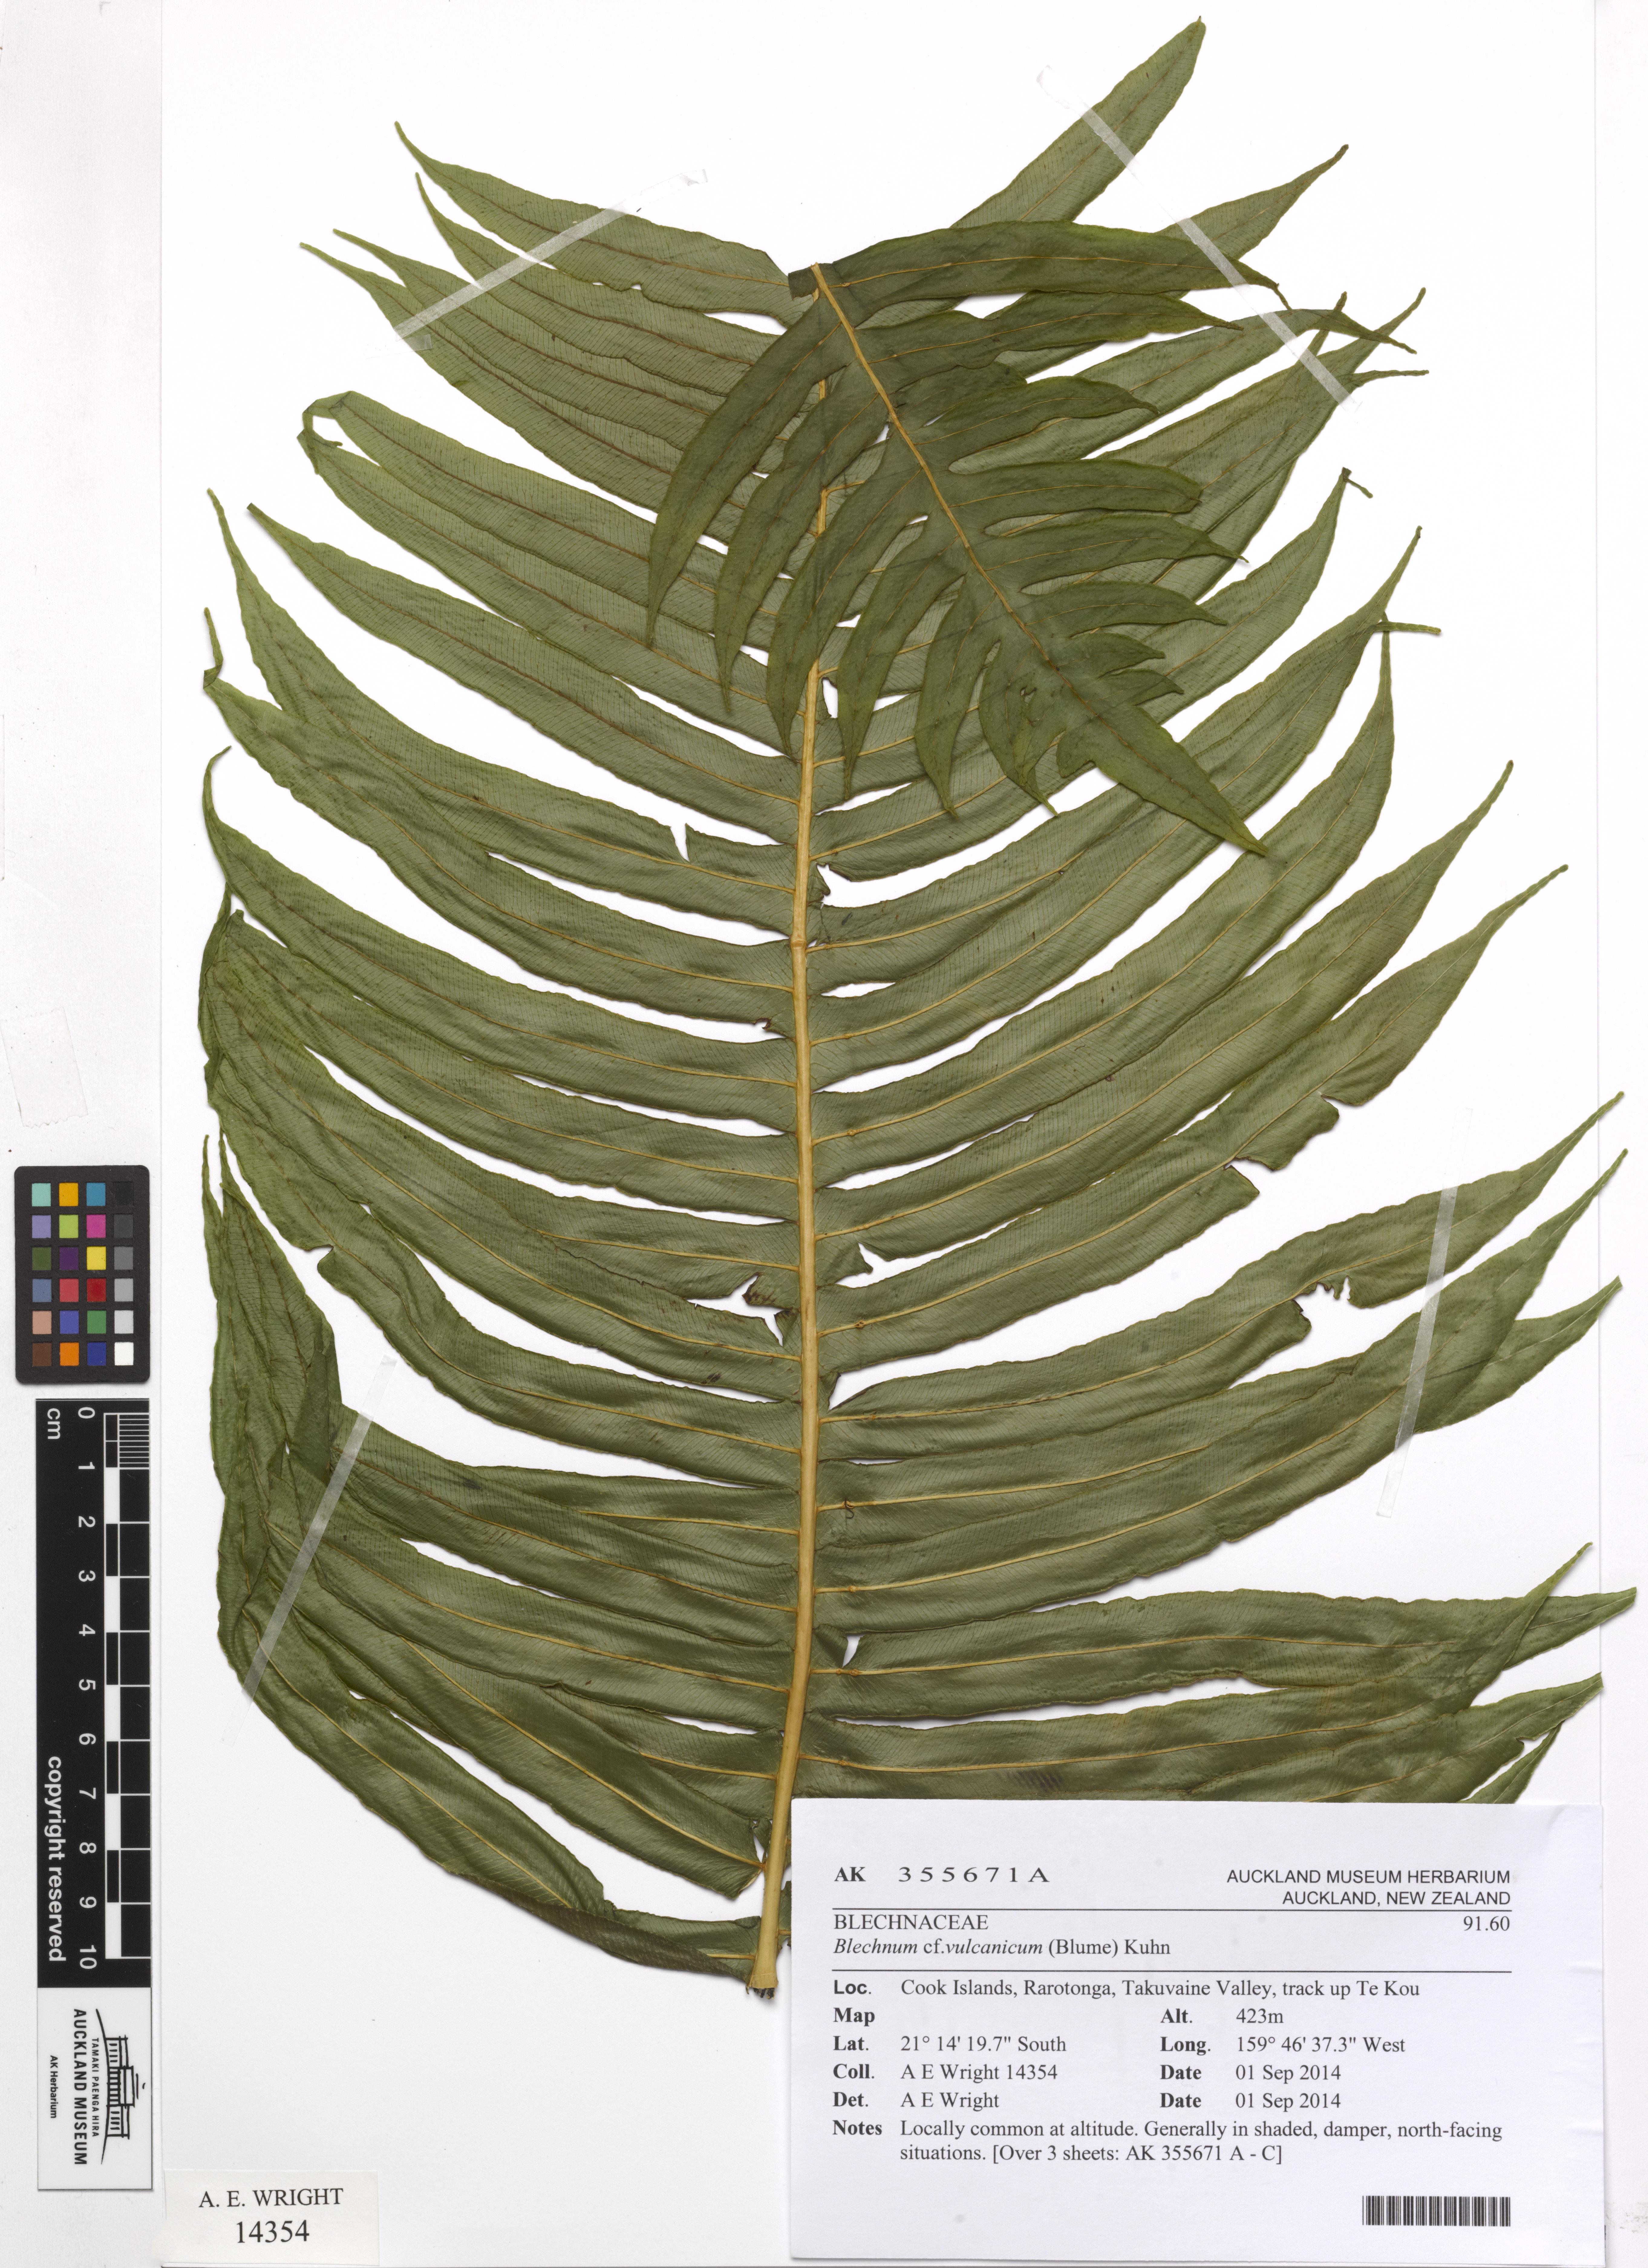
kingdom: Plantae
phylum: Tracheophyta
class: Polypodiopsida
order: Polypodiales
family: Blechnaceae
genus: Cranfillia
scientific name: Cranfillia vulcanica
